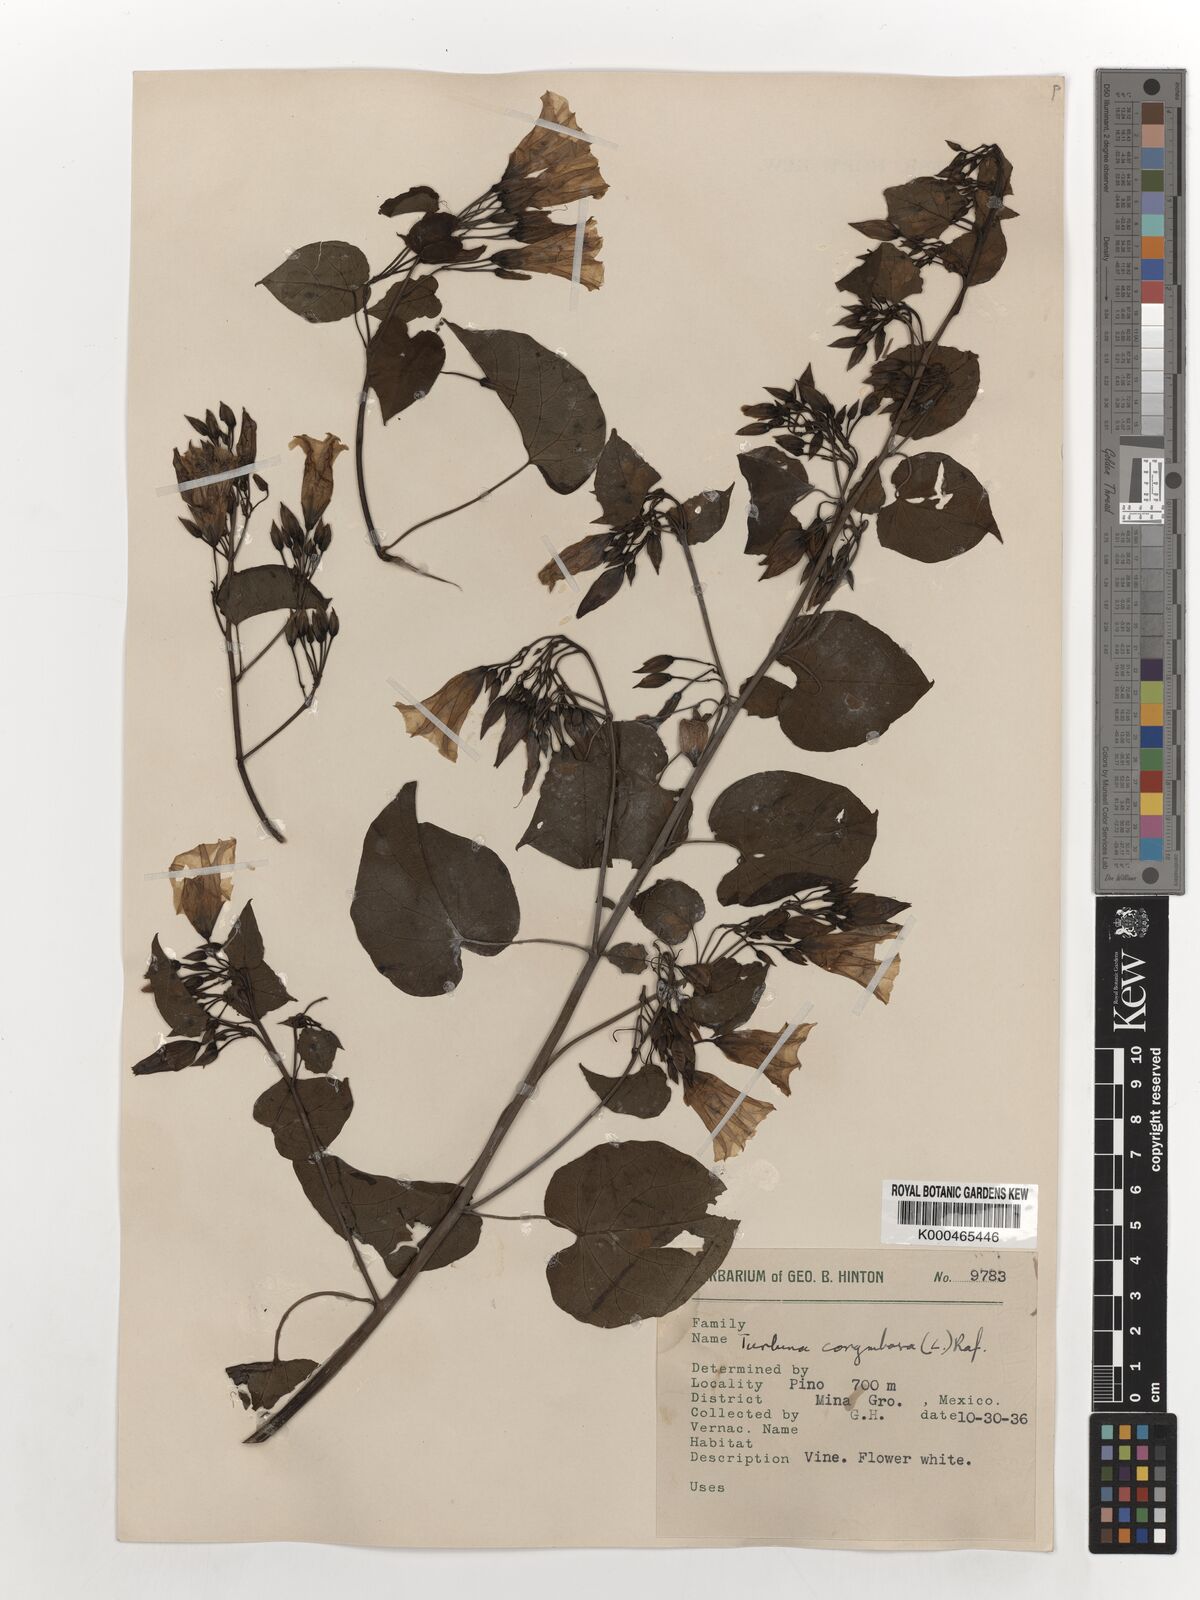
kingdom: Plantae
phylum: Tracheophyta
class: Magnoliopsida
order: Solanales
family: Convolvulaceae
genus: Ipomoea
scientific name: Ipomoea corymbosa
